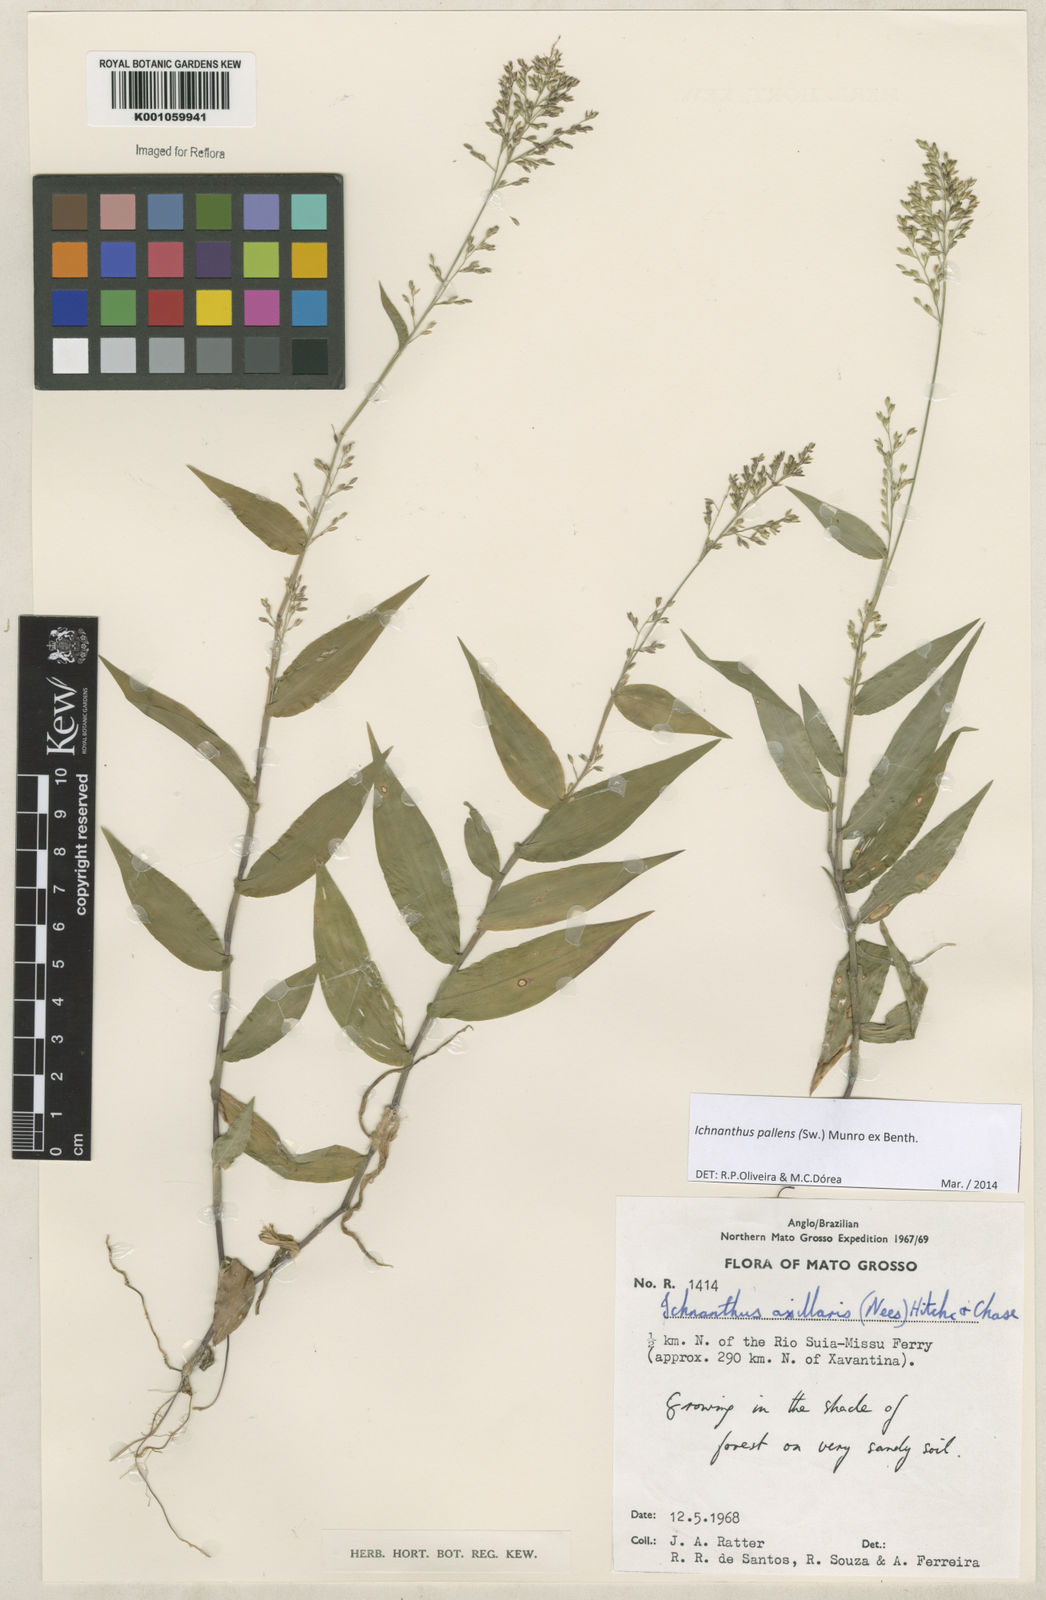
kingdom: Plantae
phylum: Tracheophyta
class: Liliopsida
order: Poales
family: Poaceae
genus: Ichnanthus
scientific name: Ichnanthus pallens
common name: Water grass
